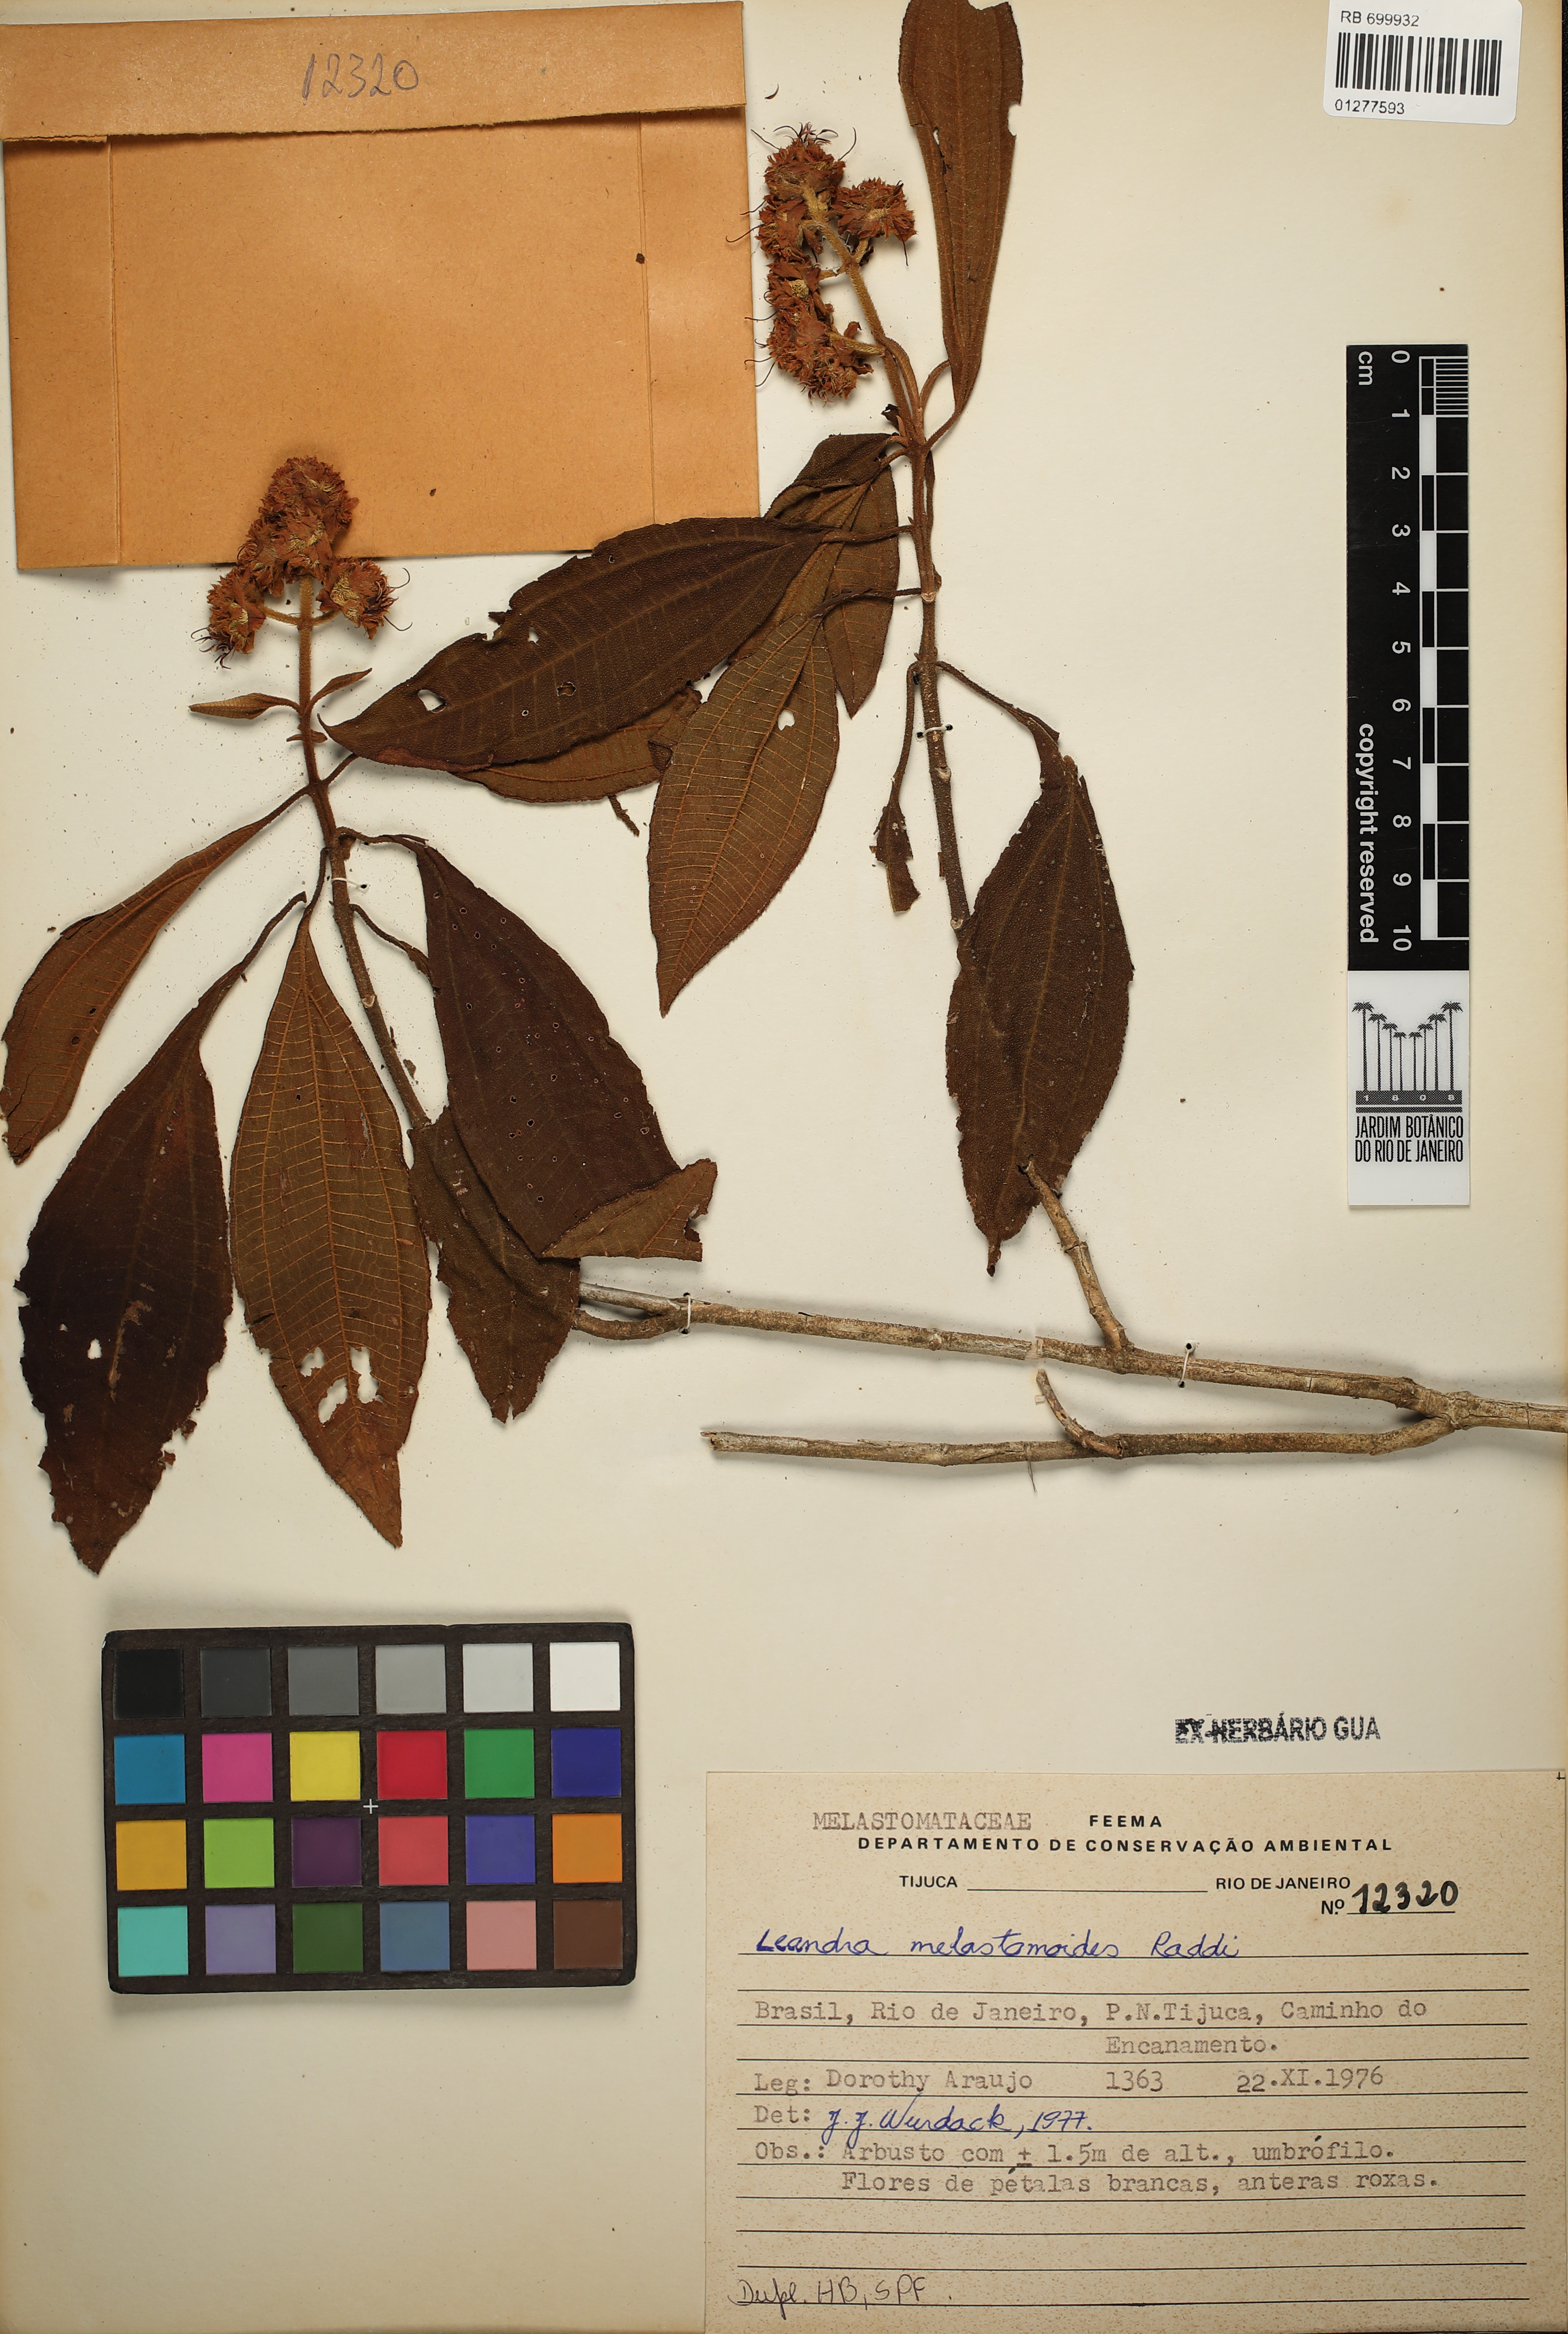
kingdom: Plantae
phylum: Tracheophyta
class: Magnoliopsida
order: Myrtales
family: Melastomataceae
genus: Miconia
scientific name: Miconia melastomoides
